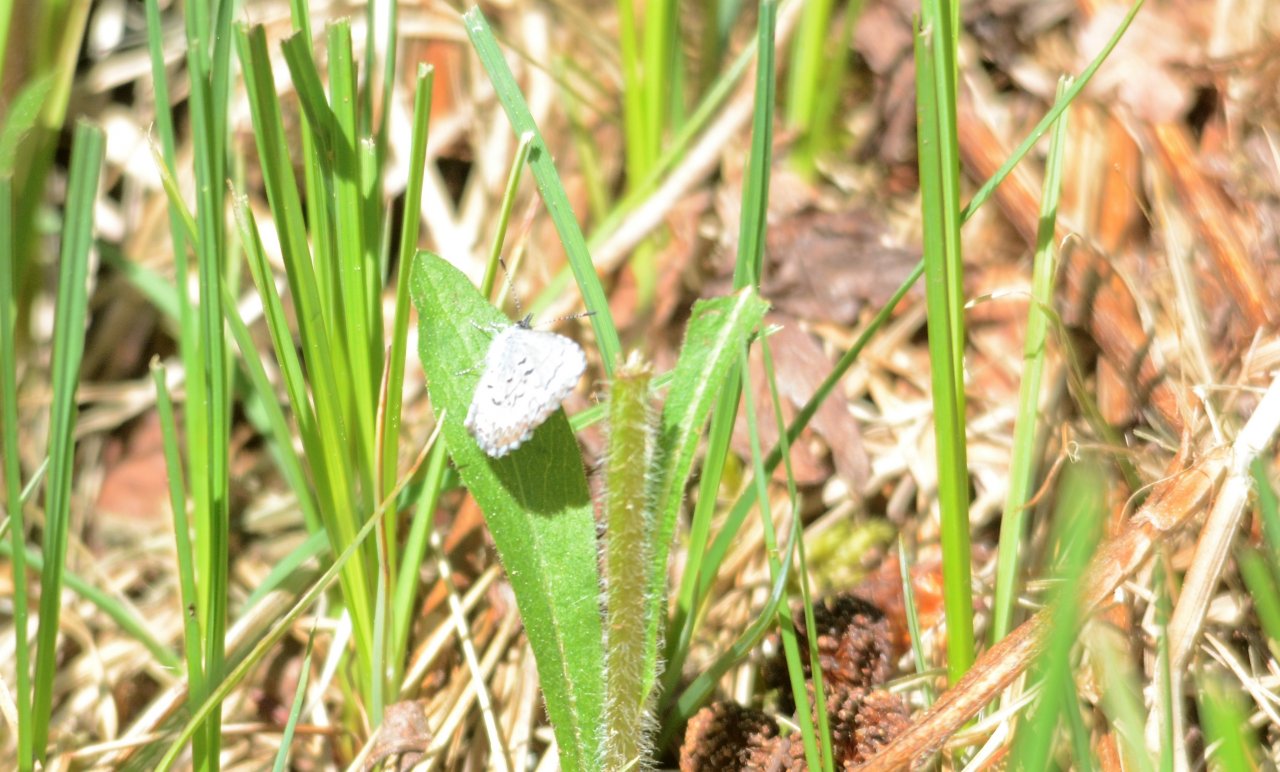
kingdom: Animalia
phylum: Arthropoda
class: Insecta
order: Lepidoptera
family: Lycaenidae
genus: Lycaeides
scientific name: Lycaeides idas
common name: Northern Blue
